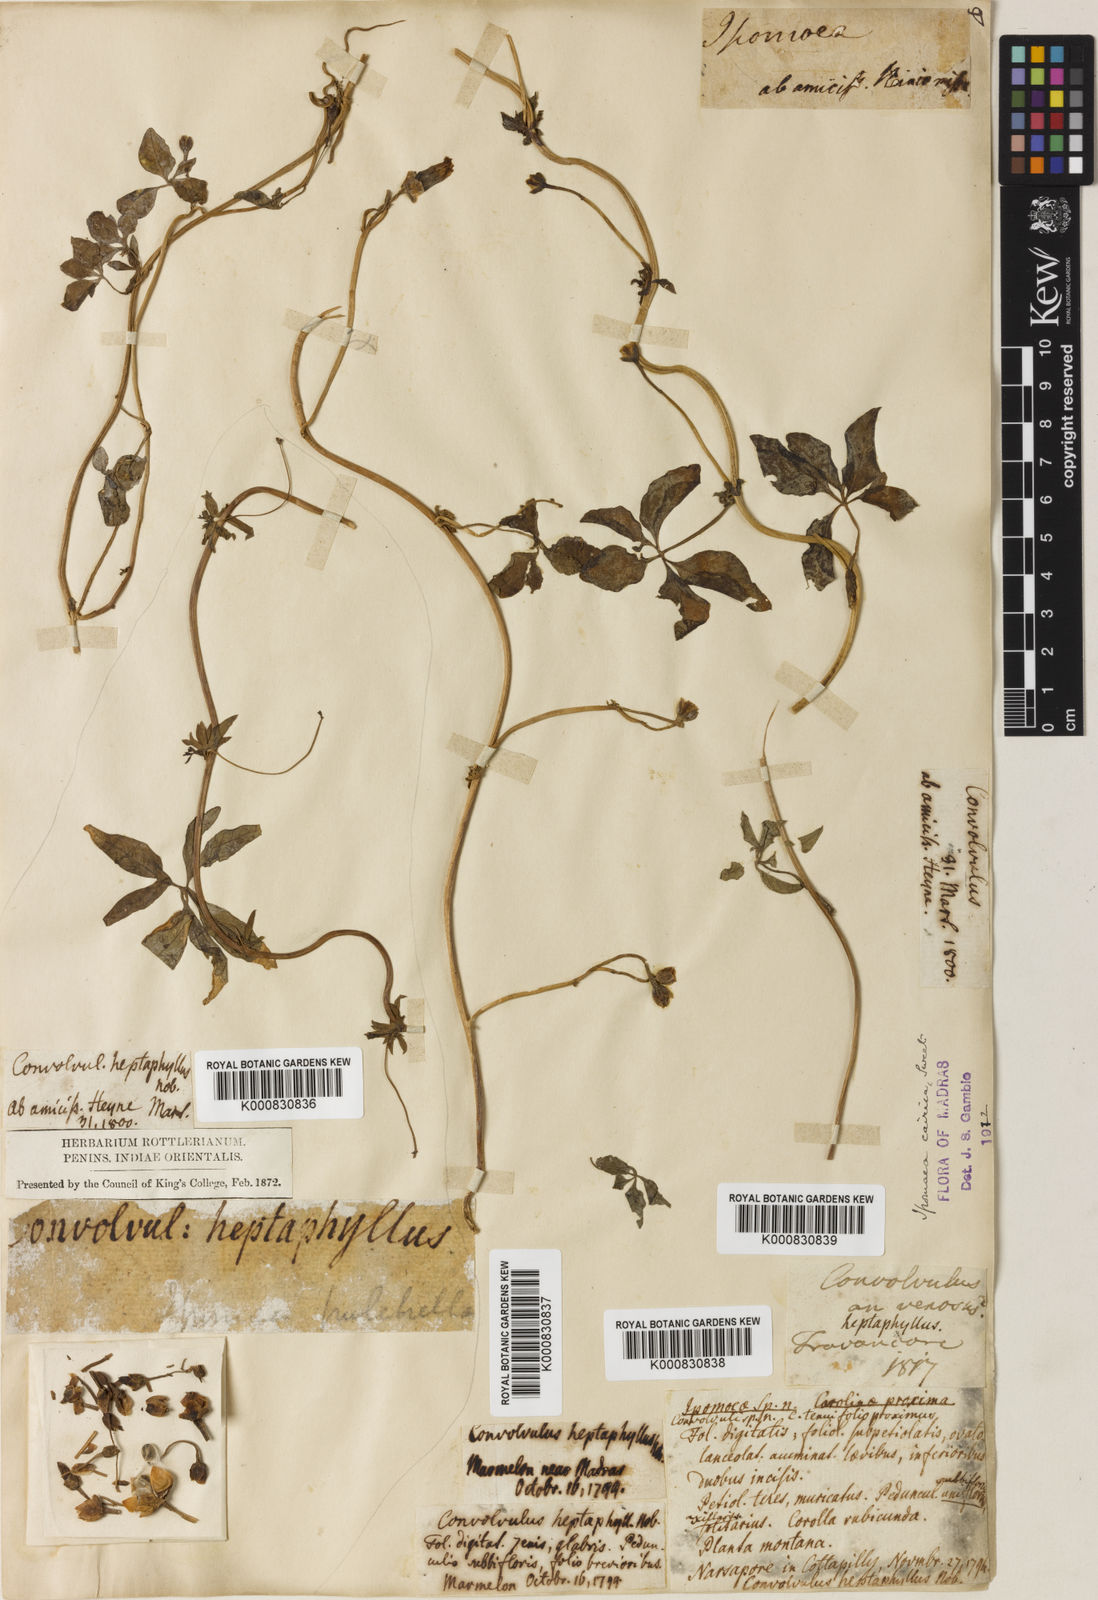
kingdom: Plantae
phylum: Tracheophyta
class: Magnoliopsida
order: Solanales
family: Convolvulaceae
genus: Ipomoea
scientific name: Ipomoea
